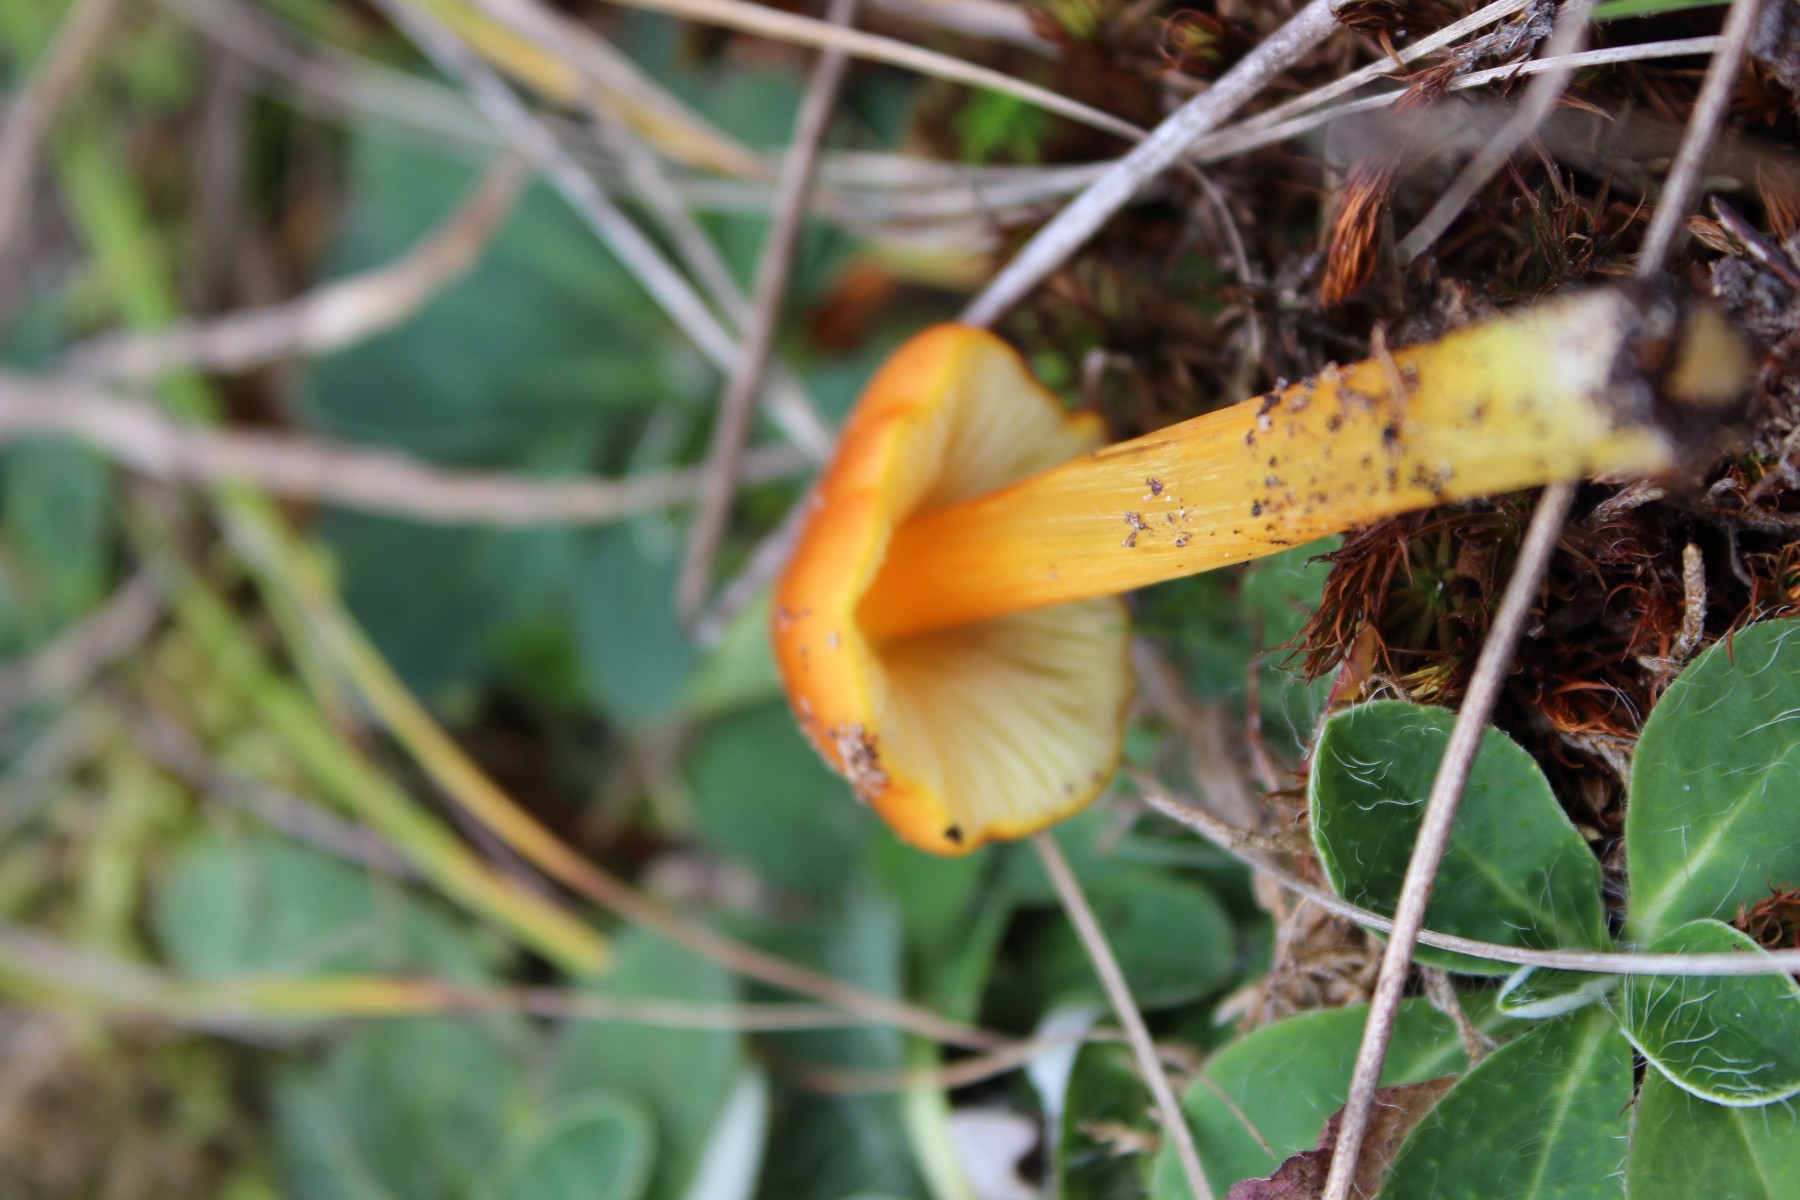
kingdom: Fungi
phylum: Basidiomycota
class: Agaricomycetes
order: Agaricales
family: Hygrophoraceae
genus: Hygrocybe
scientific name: Hygrocybe conica
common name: kegle-vokshat
